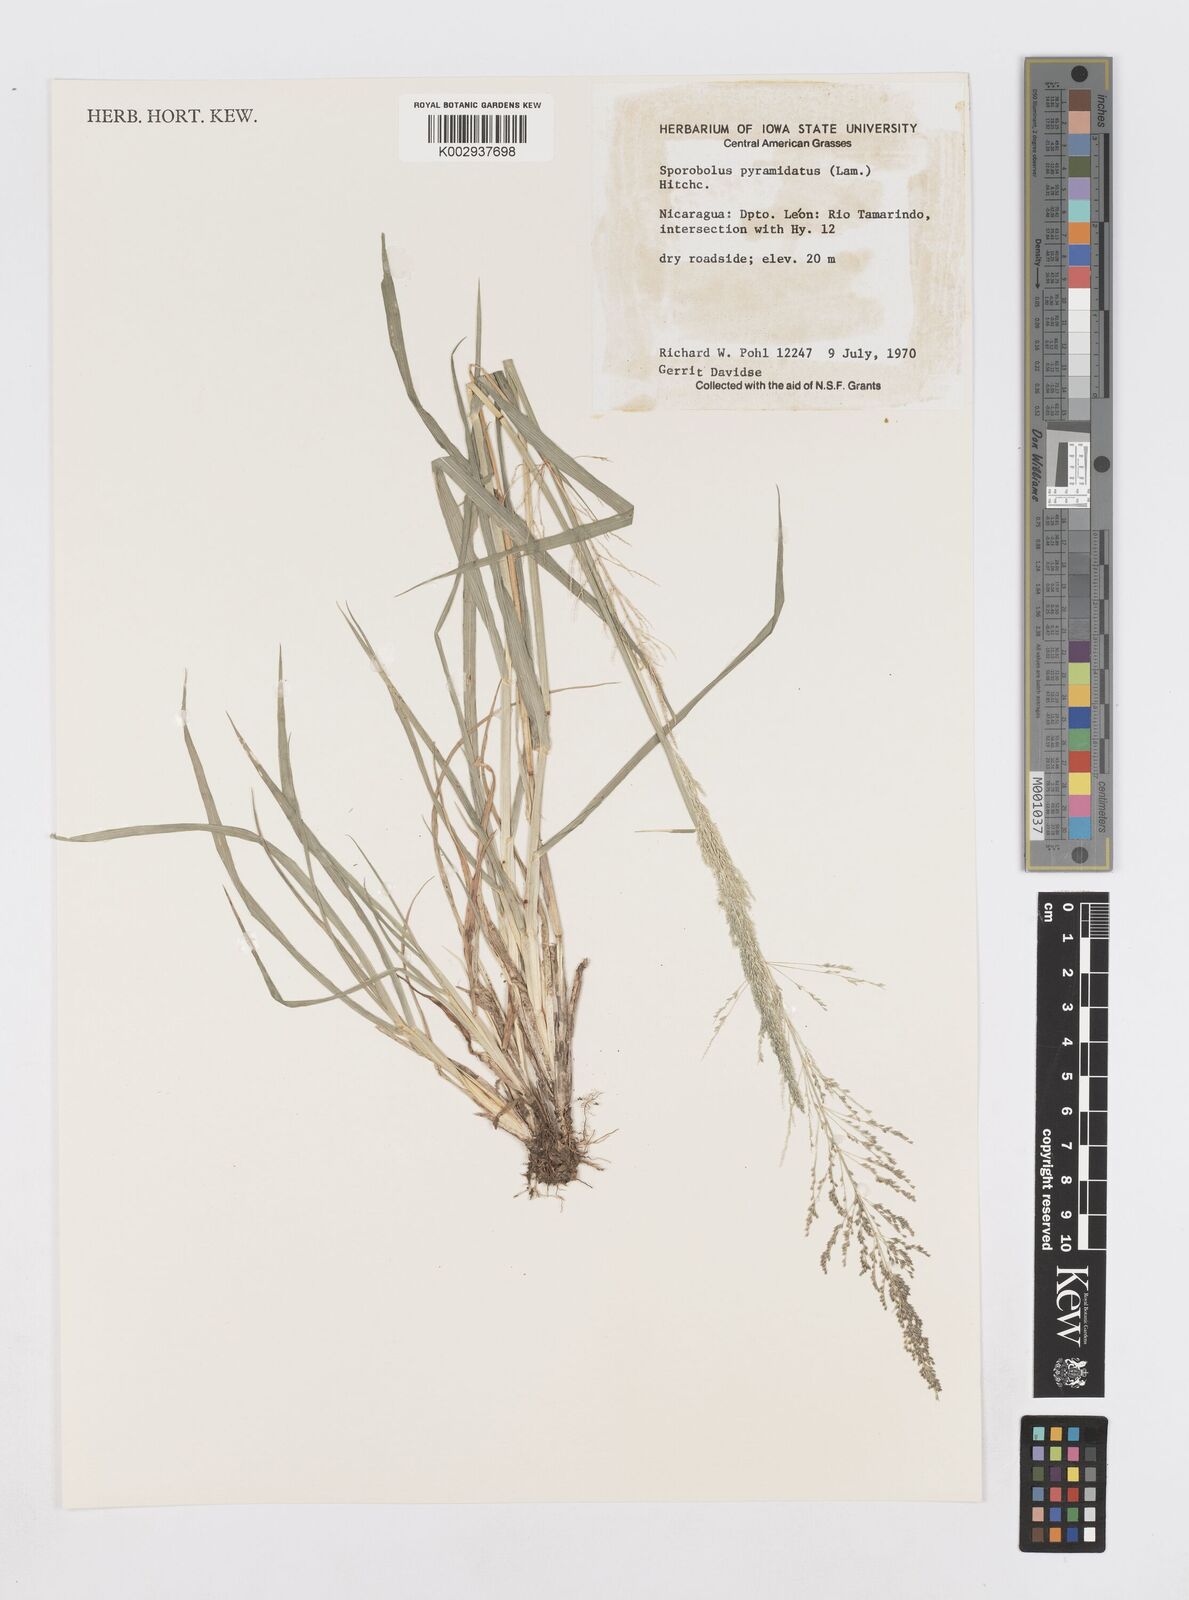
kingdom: Plantae
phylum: Tracheophyta
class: Liliopsida
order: Poales
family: Poaceae
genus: Sporobolus
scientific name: Sporobolus pyramidatus
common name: Whorled dropseed
